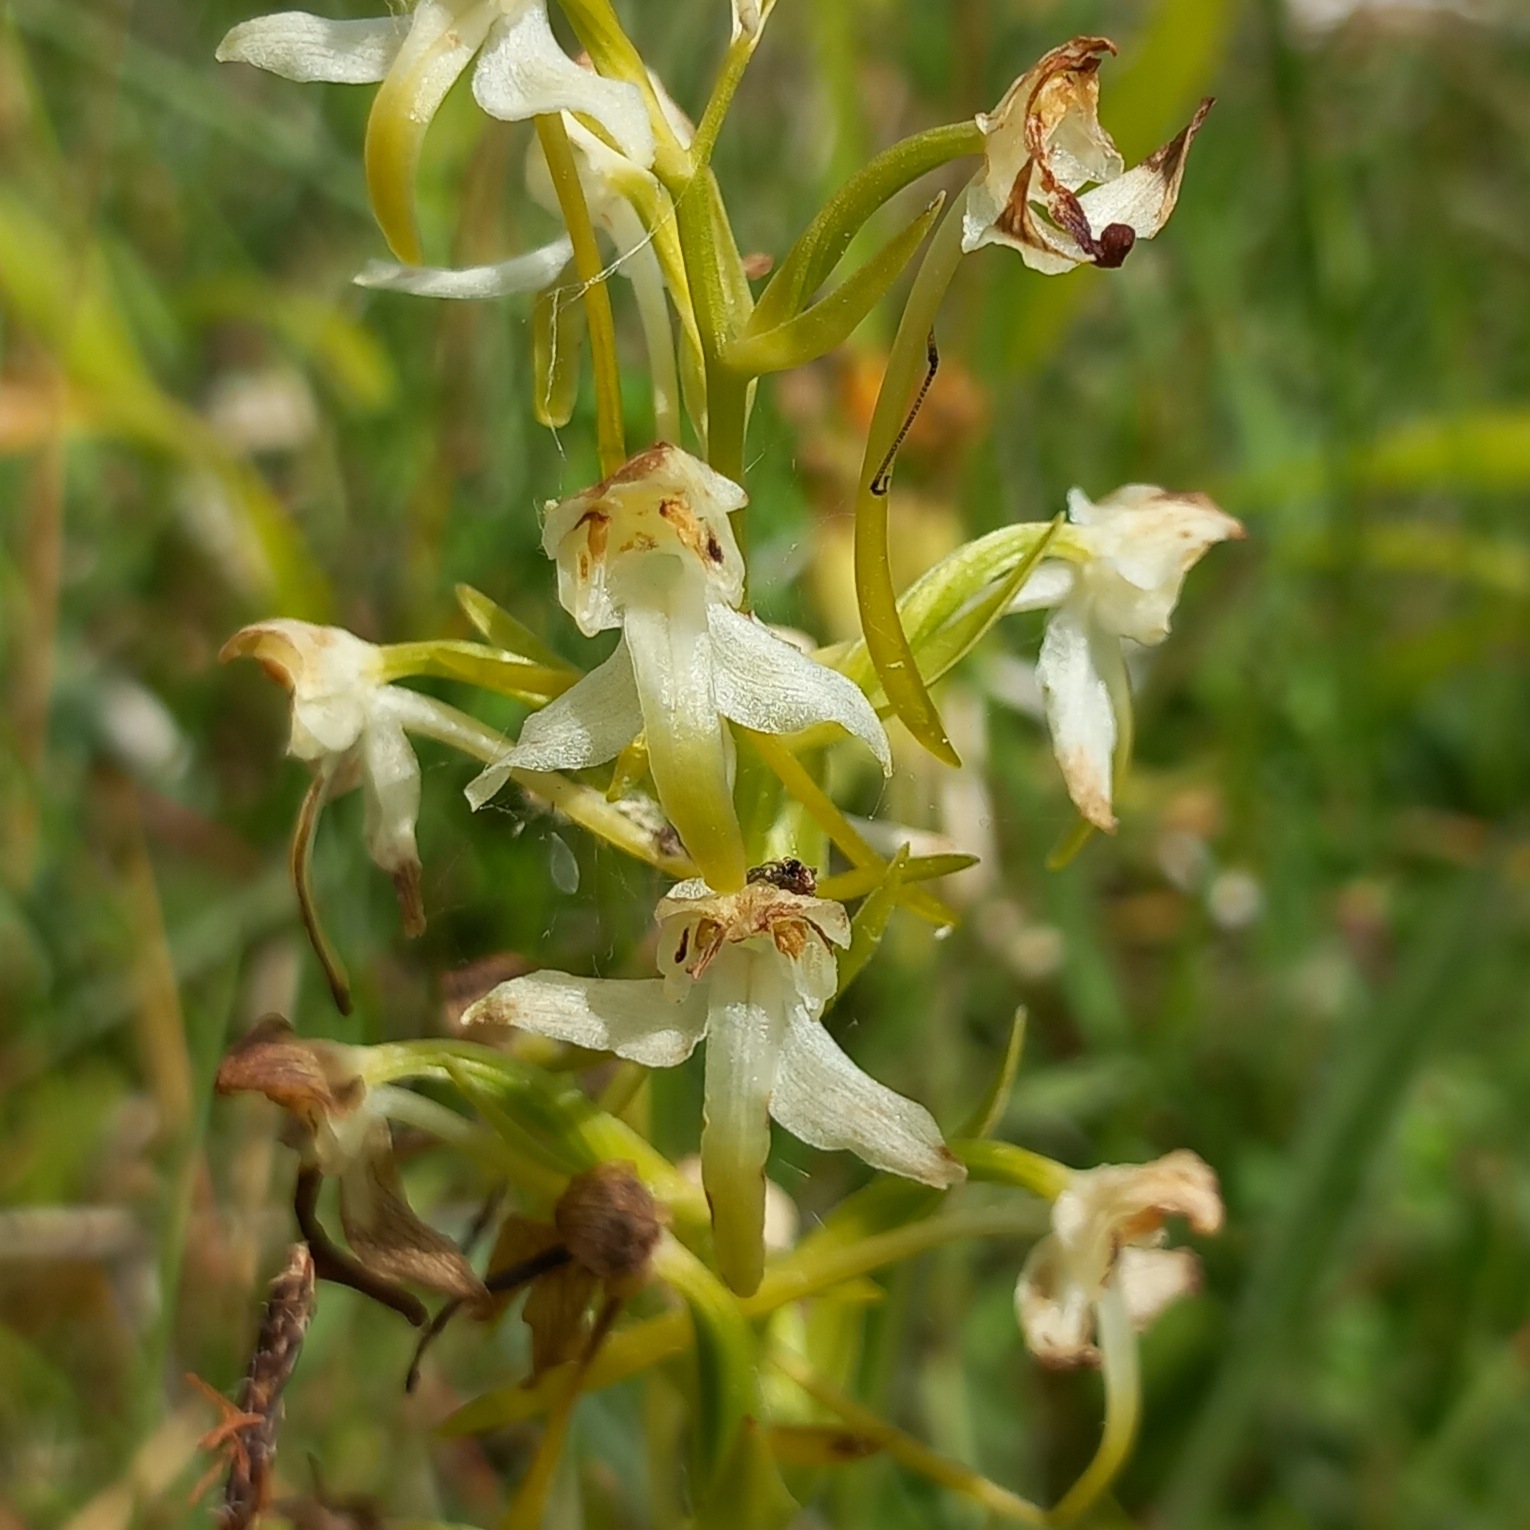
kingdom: Plantae
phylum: Tracheophyta
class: Liliopsida
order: Asparagales
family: Orchidaceae
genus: Platanthera
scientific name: Platanthera chlorantha
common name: Skov-gøgelilje
